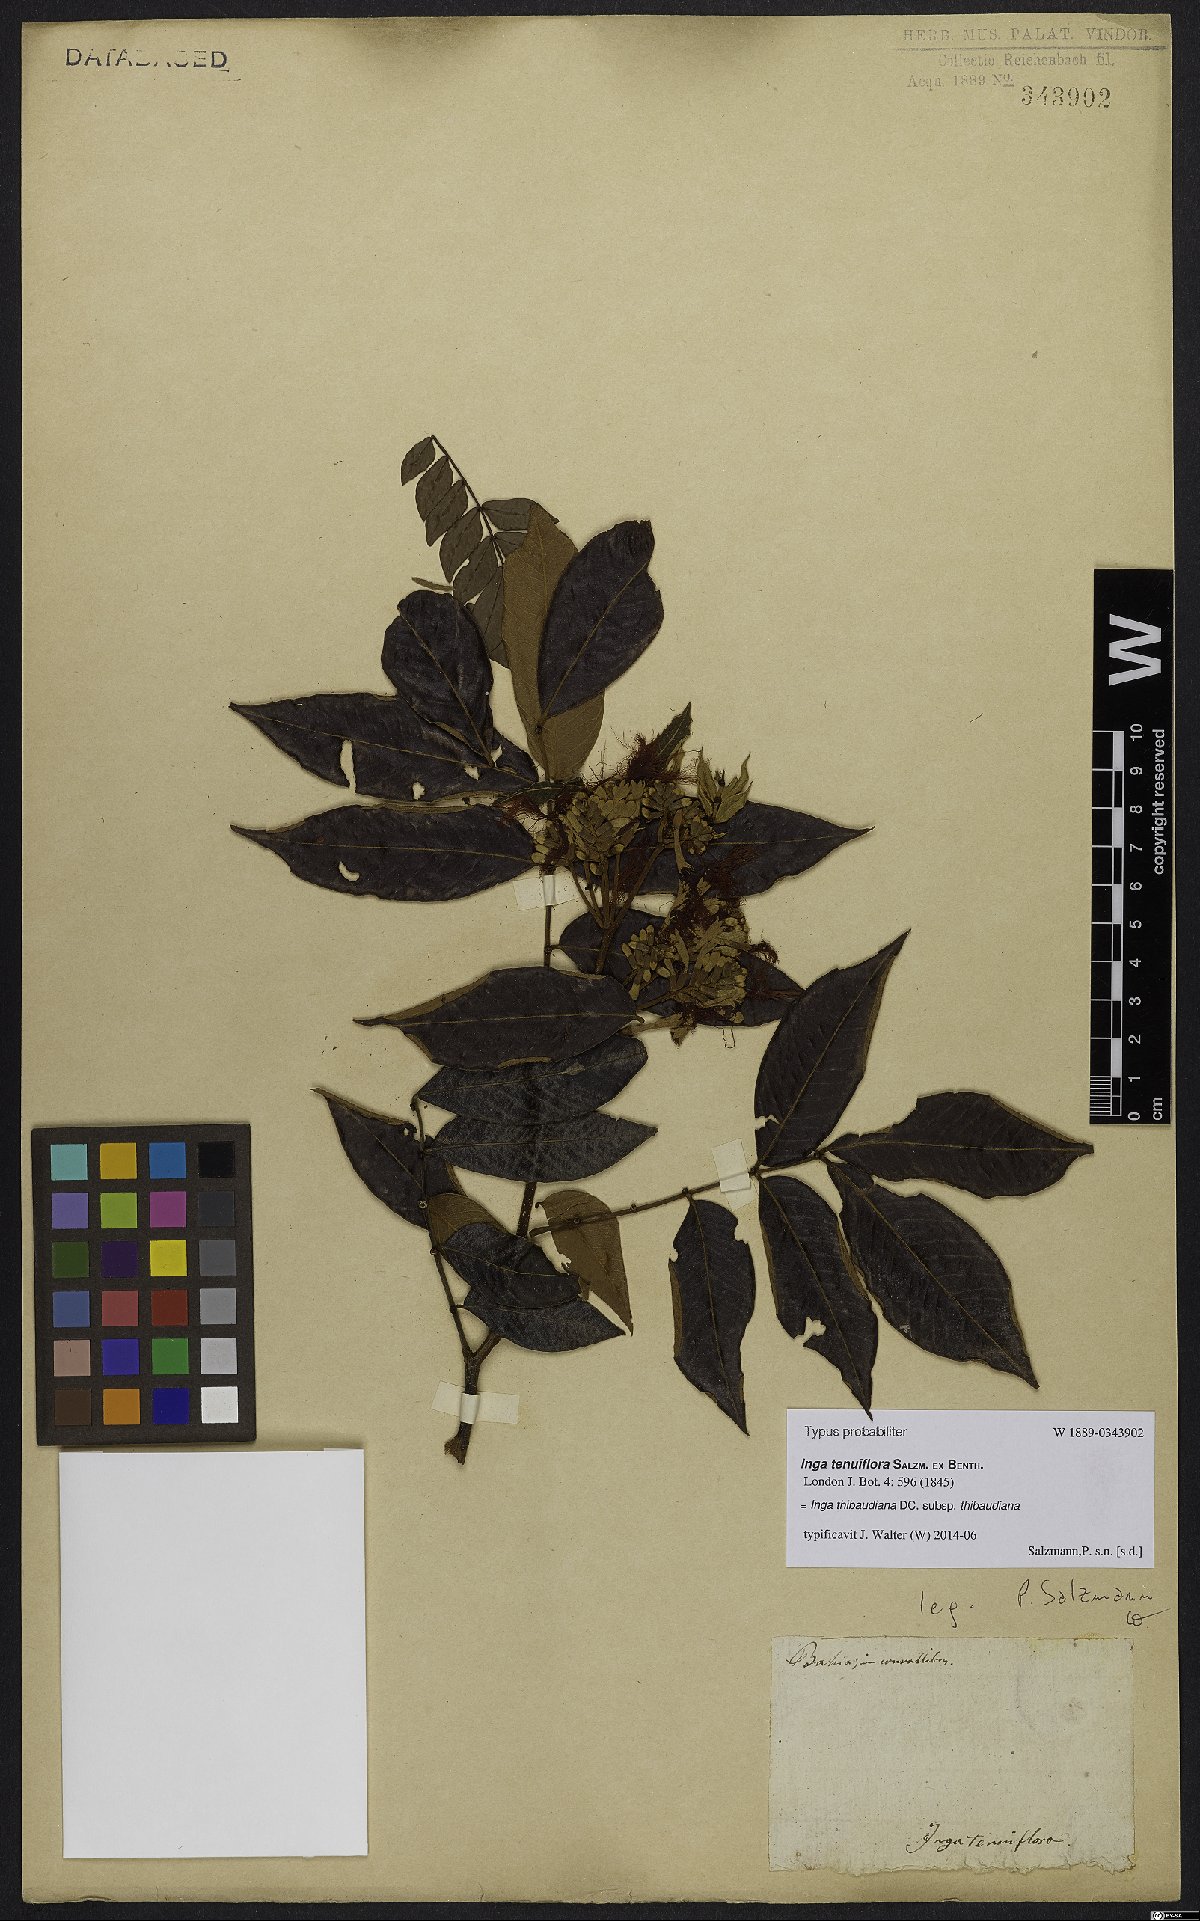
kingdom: Plantae
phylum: Tracheophyta
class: Magnoliopsida
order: Fabales
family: Fabaceae
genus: Inga
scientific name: Inga thibaudiana
